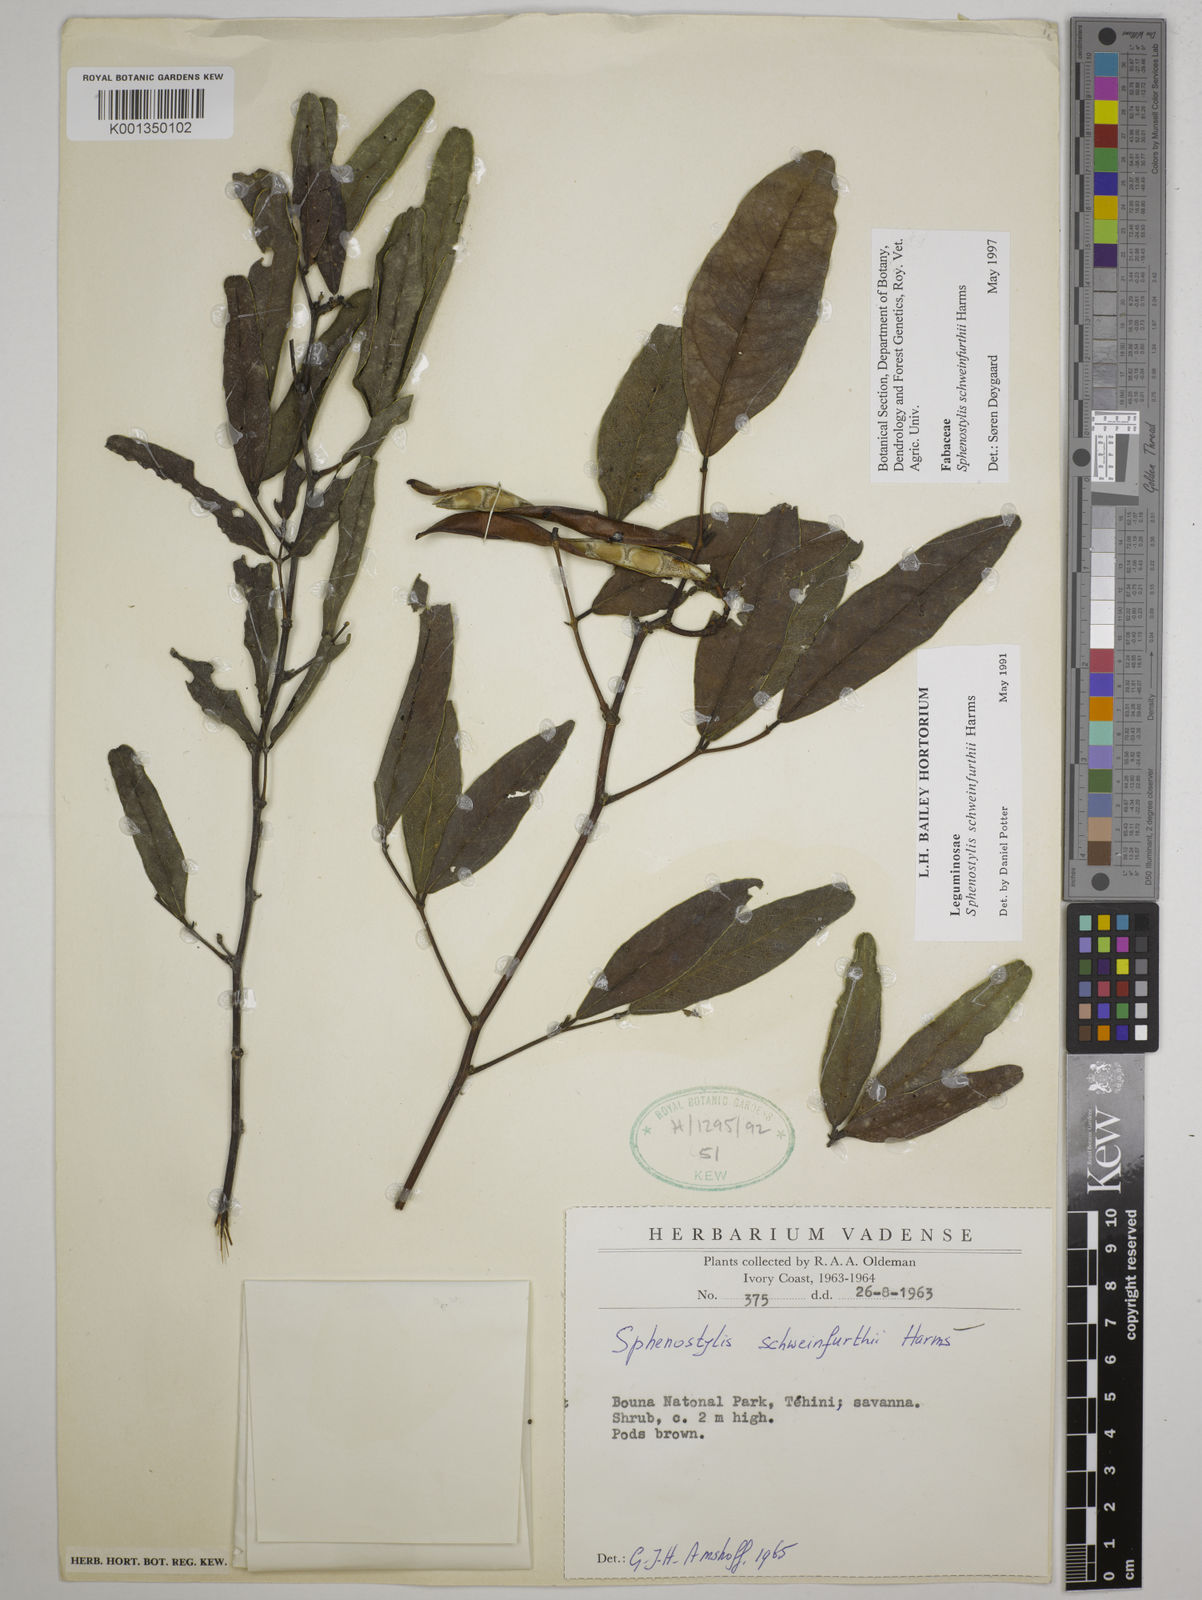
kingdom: Plantae
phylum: Tracheophyta
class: Magnoliopsida
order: Fabales
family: Fabaceae
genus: Sphenostylis
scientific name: Sphenostylis schweinfurthii
